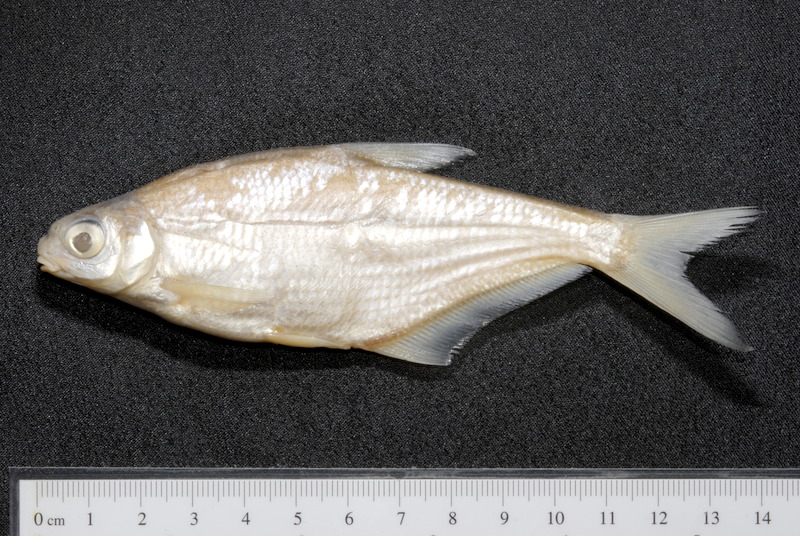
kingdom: Animalia
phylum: Chordata
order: Cypriniformes
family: Cyprinidae
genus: Ballerus
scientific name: Ballerus sapa
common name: White-eye bream
